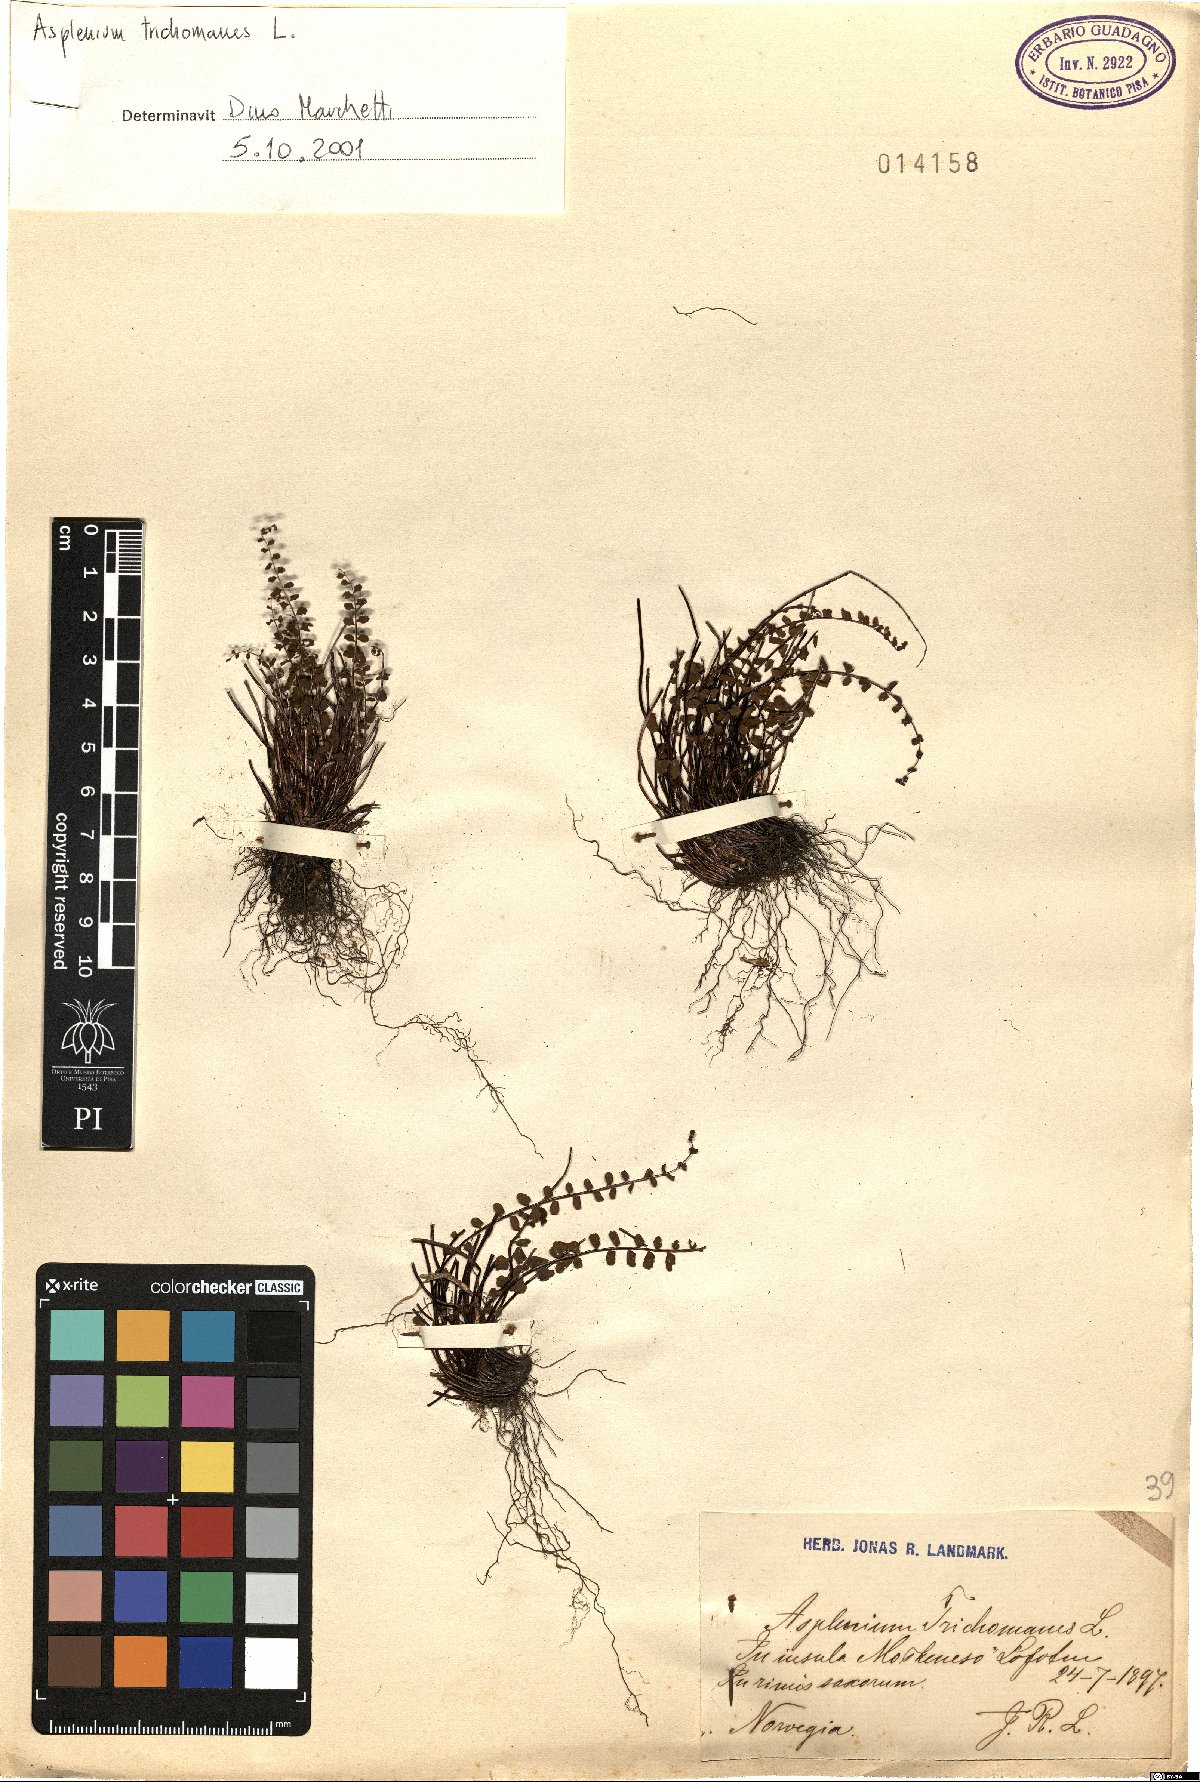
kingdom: Plantae
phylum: Tracheophyta
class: Polypodiopsida
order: Polypodiales
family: Aspleniaceae
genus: Asplenium
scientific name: Asplenium trichomanes
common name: Maidenhair spleenwort
